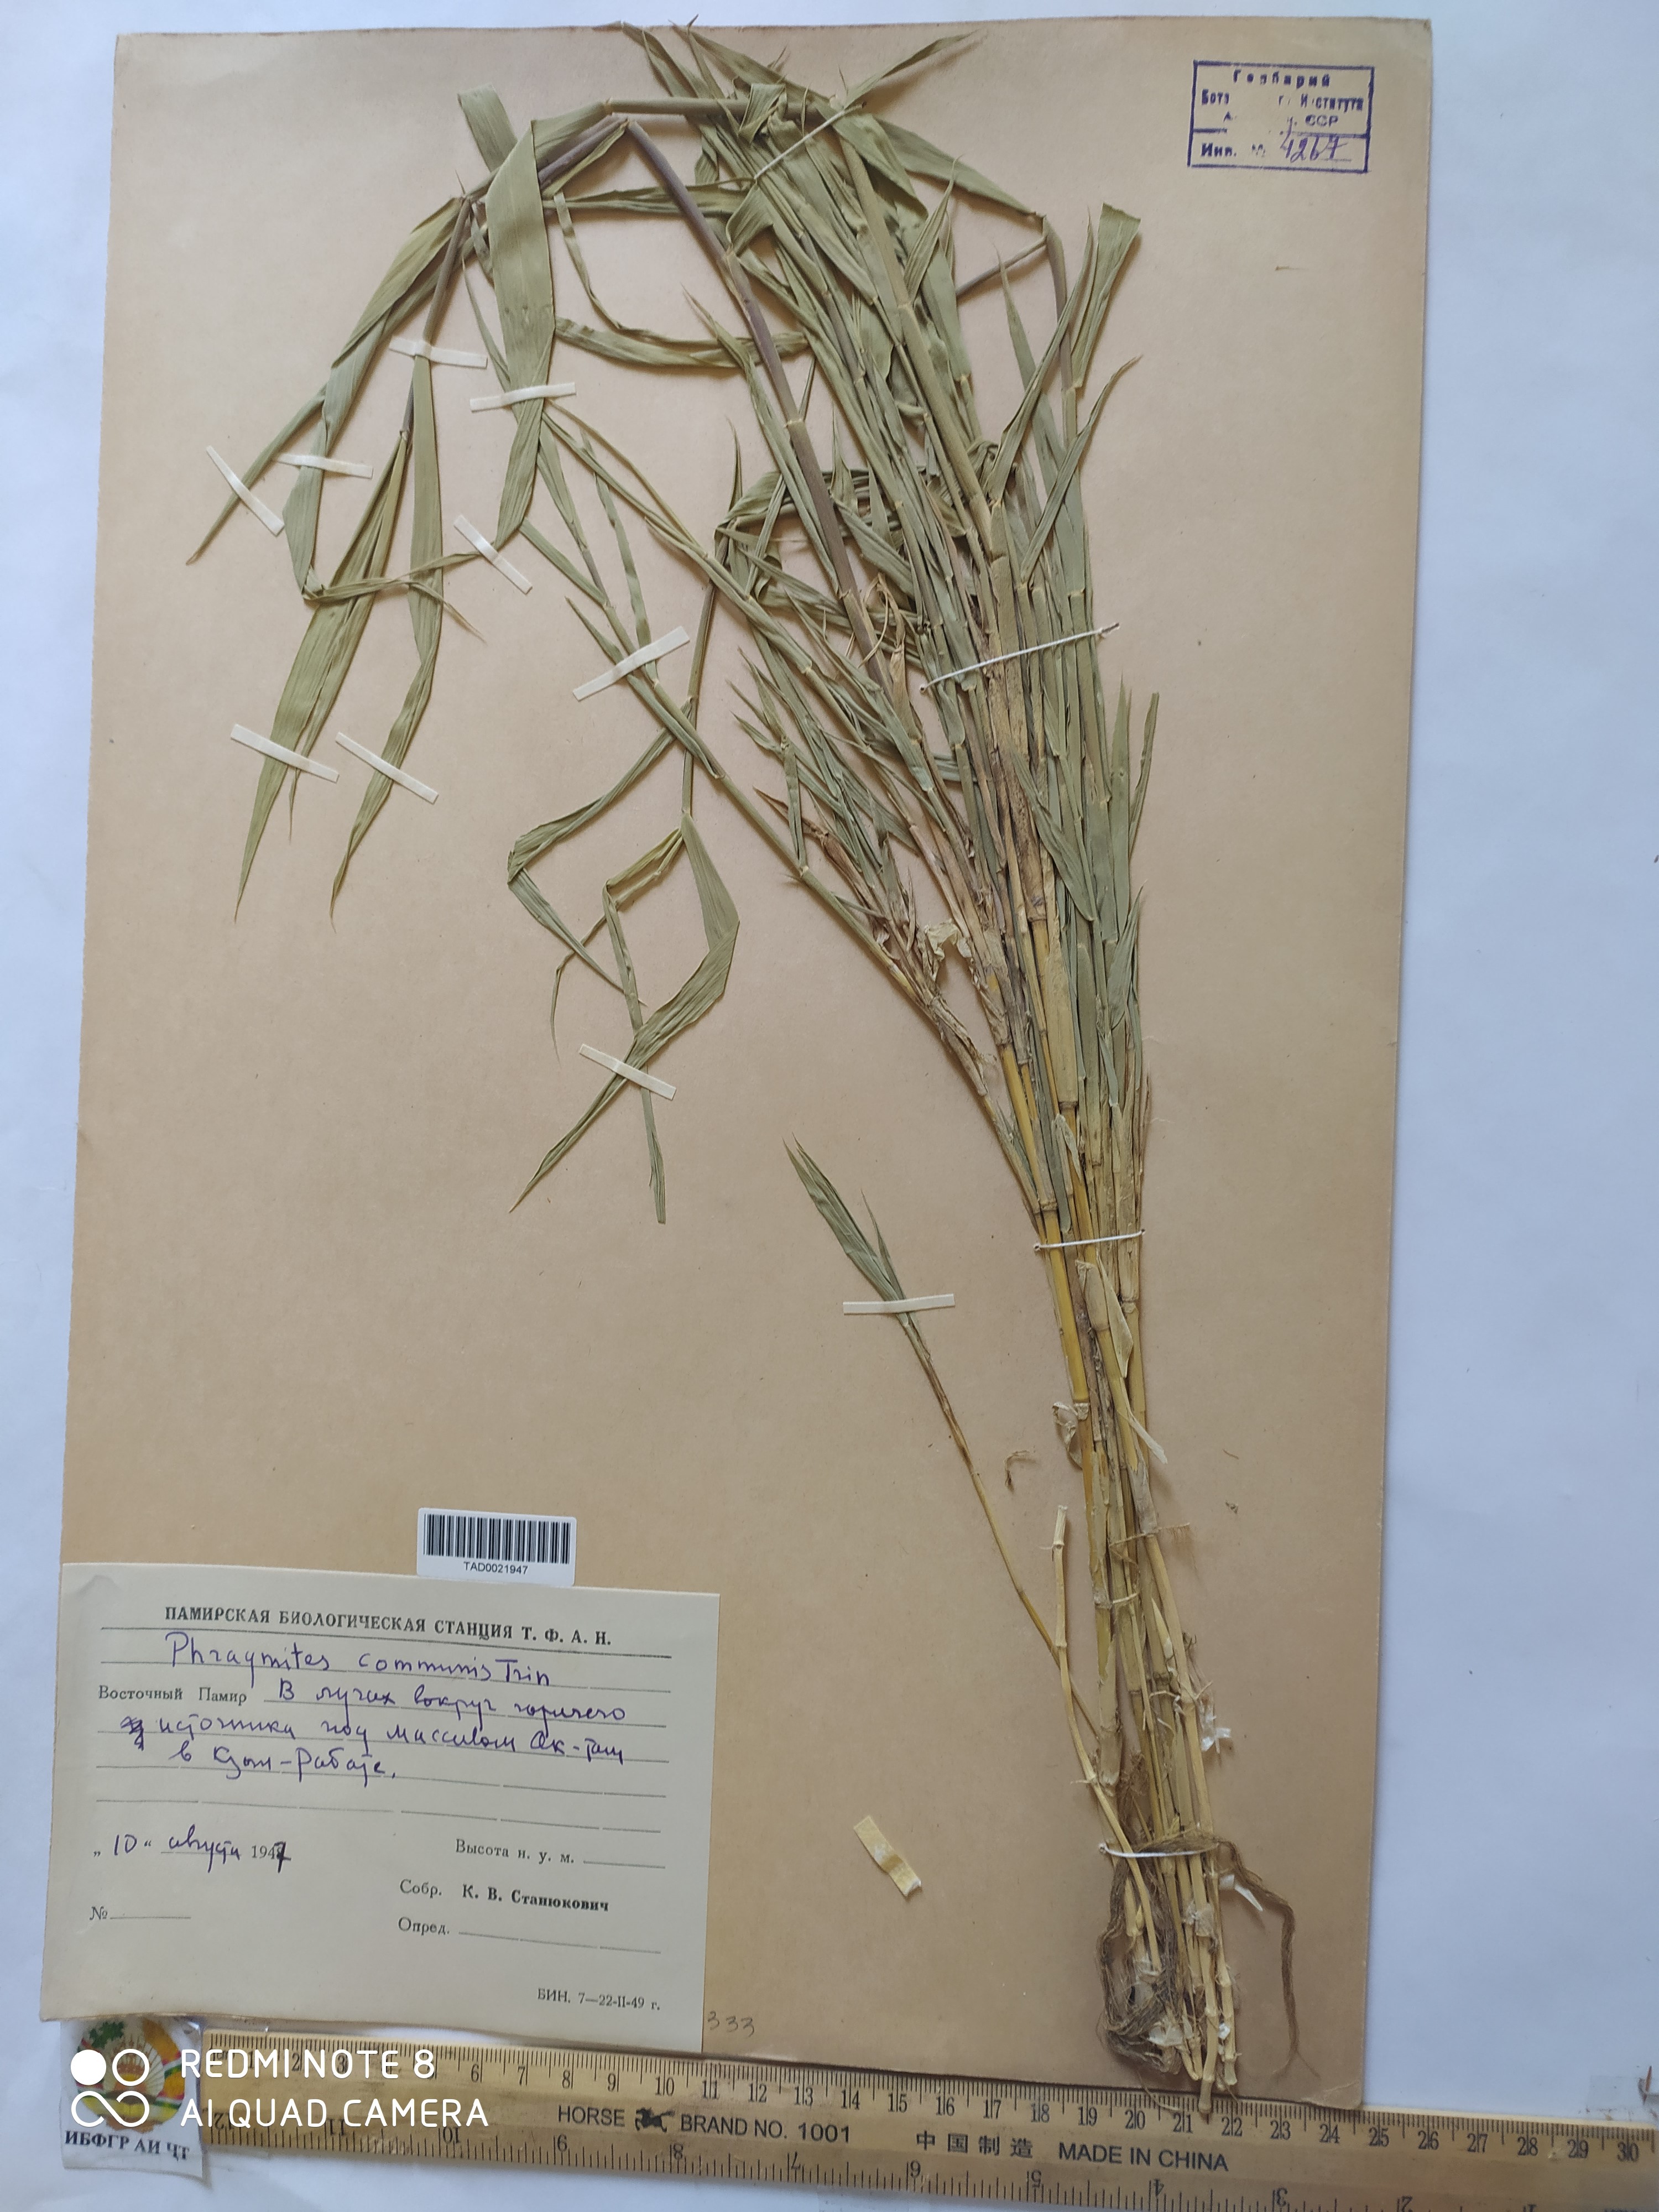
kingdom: Plantae
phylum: Tracheophyta
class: Liliopsida
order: Poales
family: Poaceae
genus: Phragmites
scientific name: Phragmites australis
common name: Common reed
